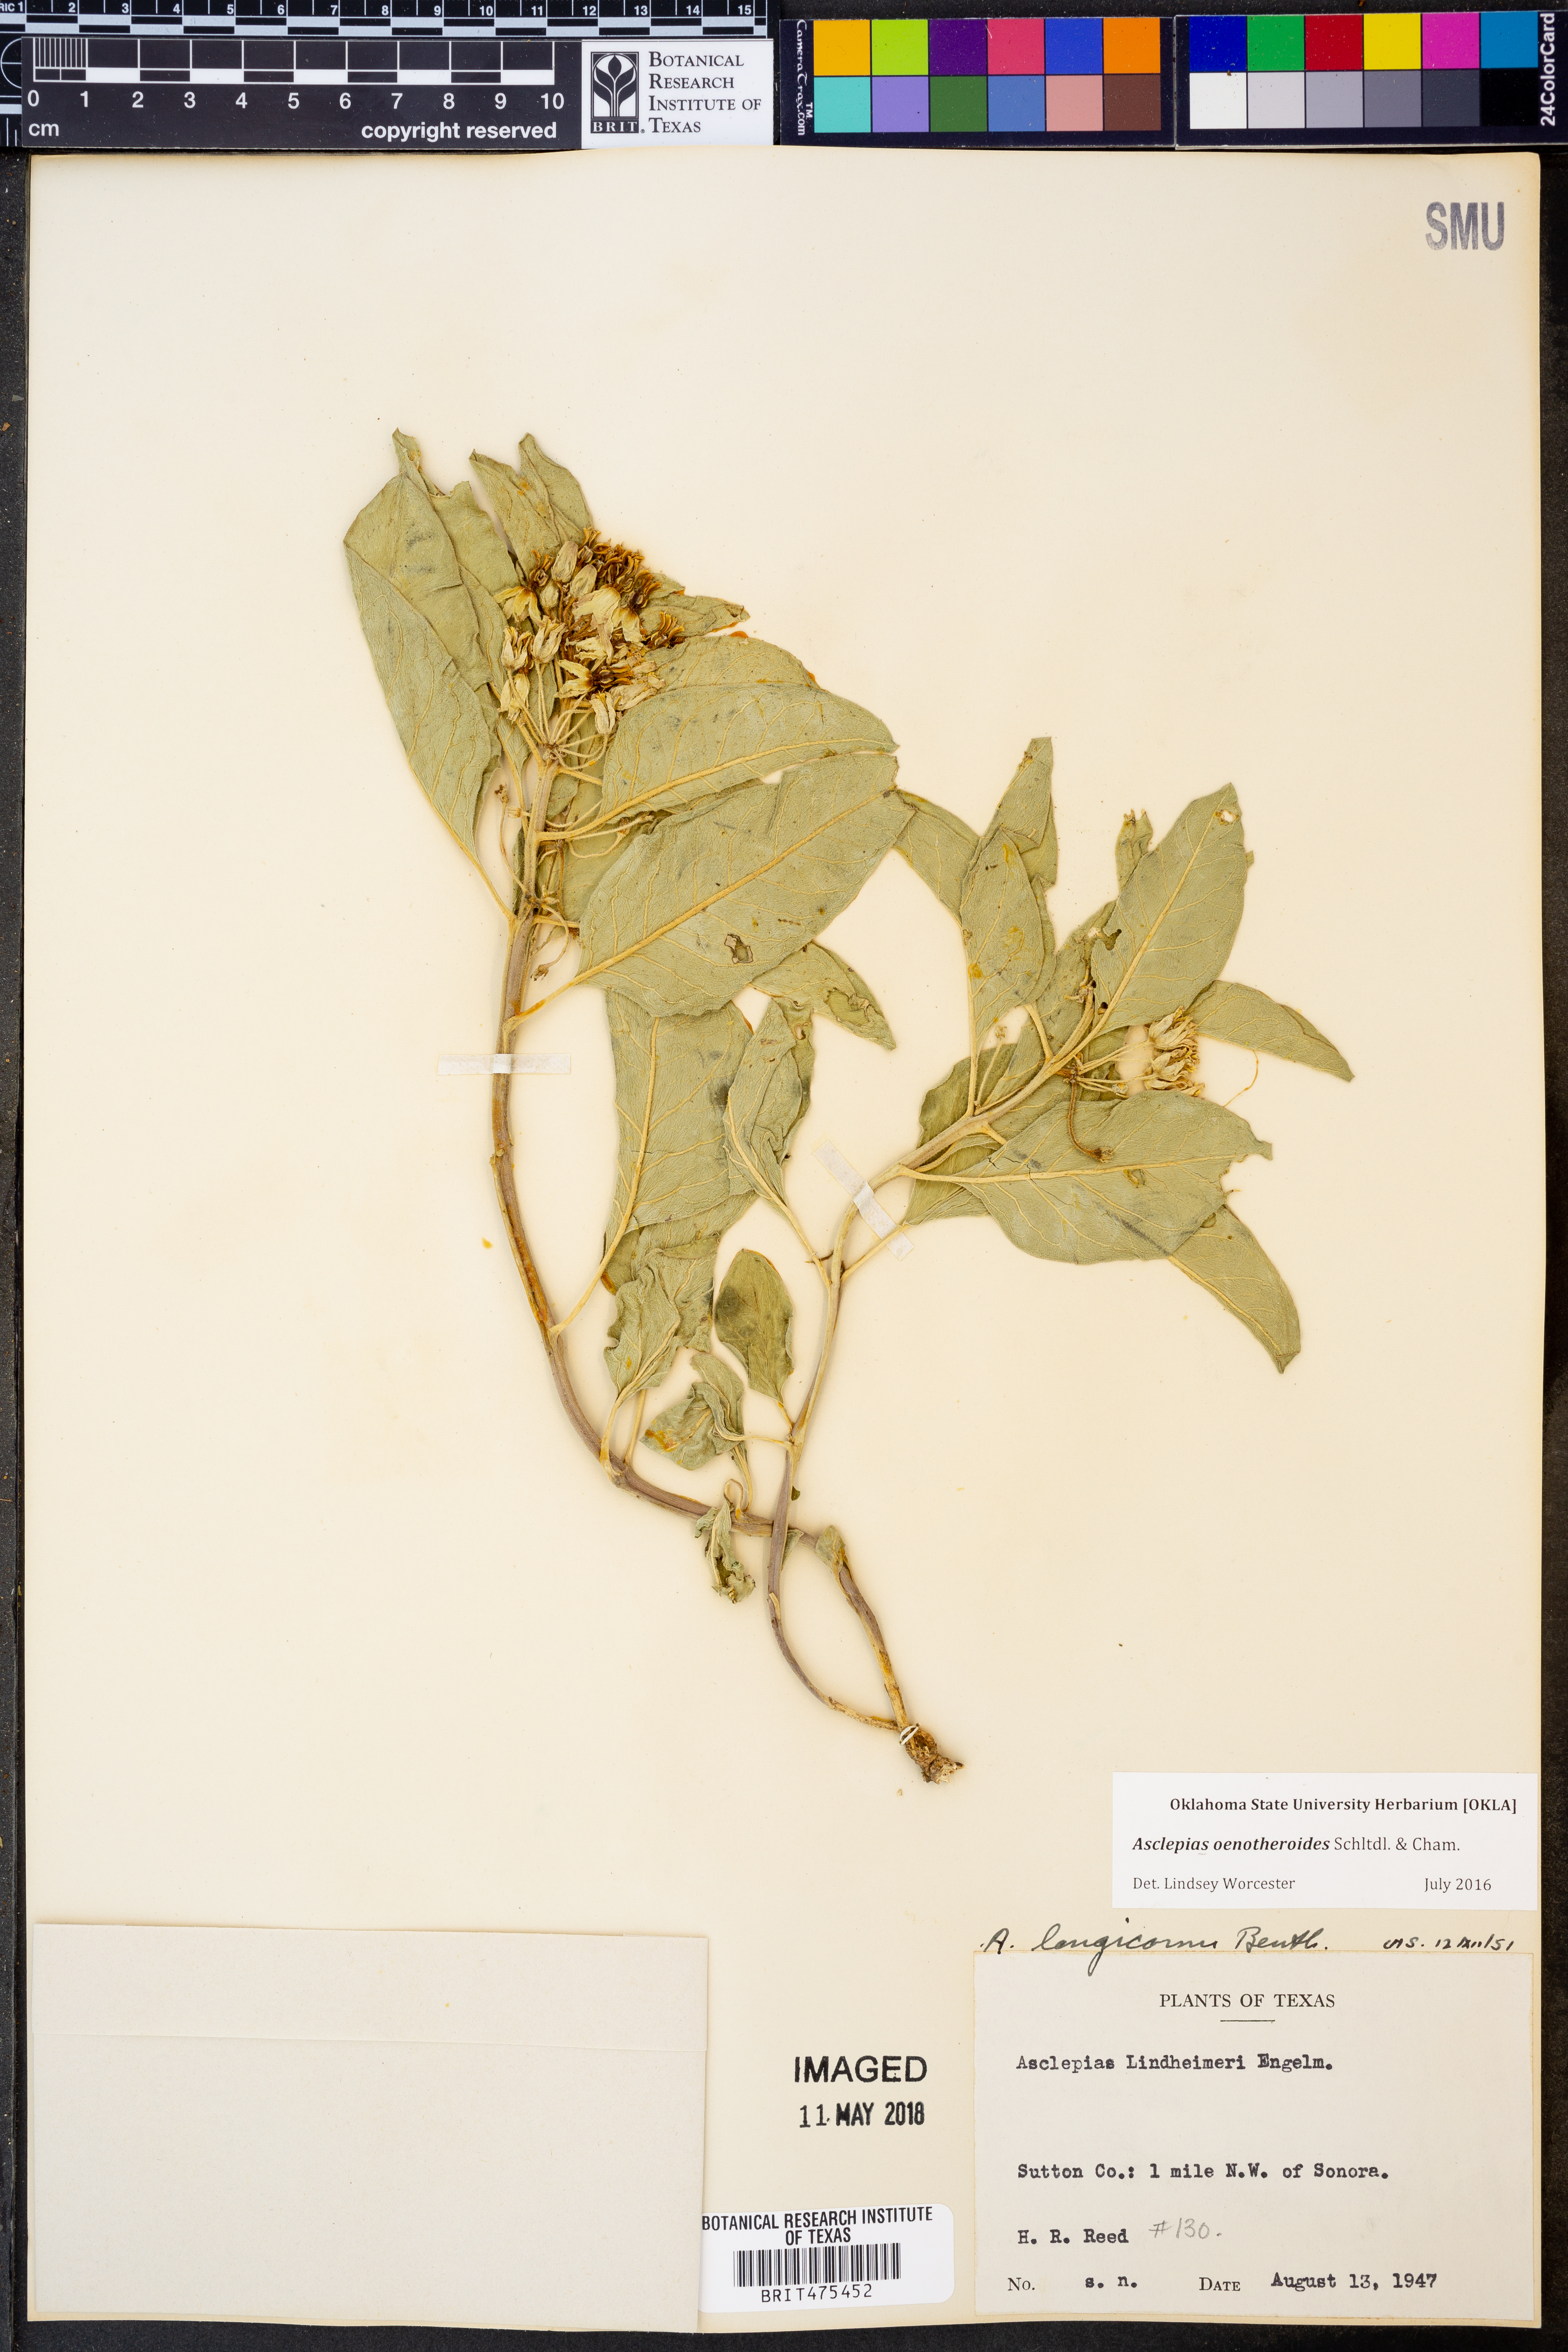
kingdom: Plantae
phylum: Tracheophyta
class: Magnoliopsida
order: Gentianales
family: Apocynaceae
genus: Asclepias
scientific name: Asclepias oenotheroides
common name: Zizotes milkweed
